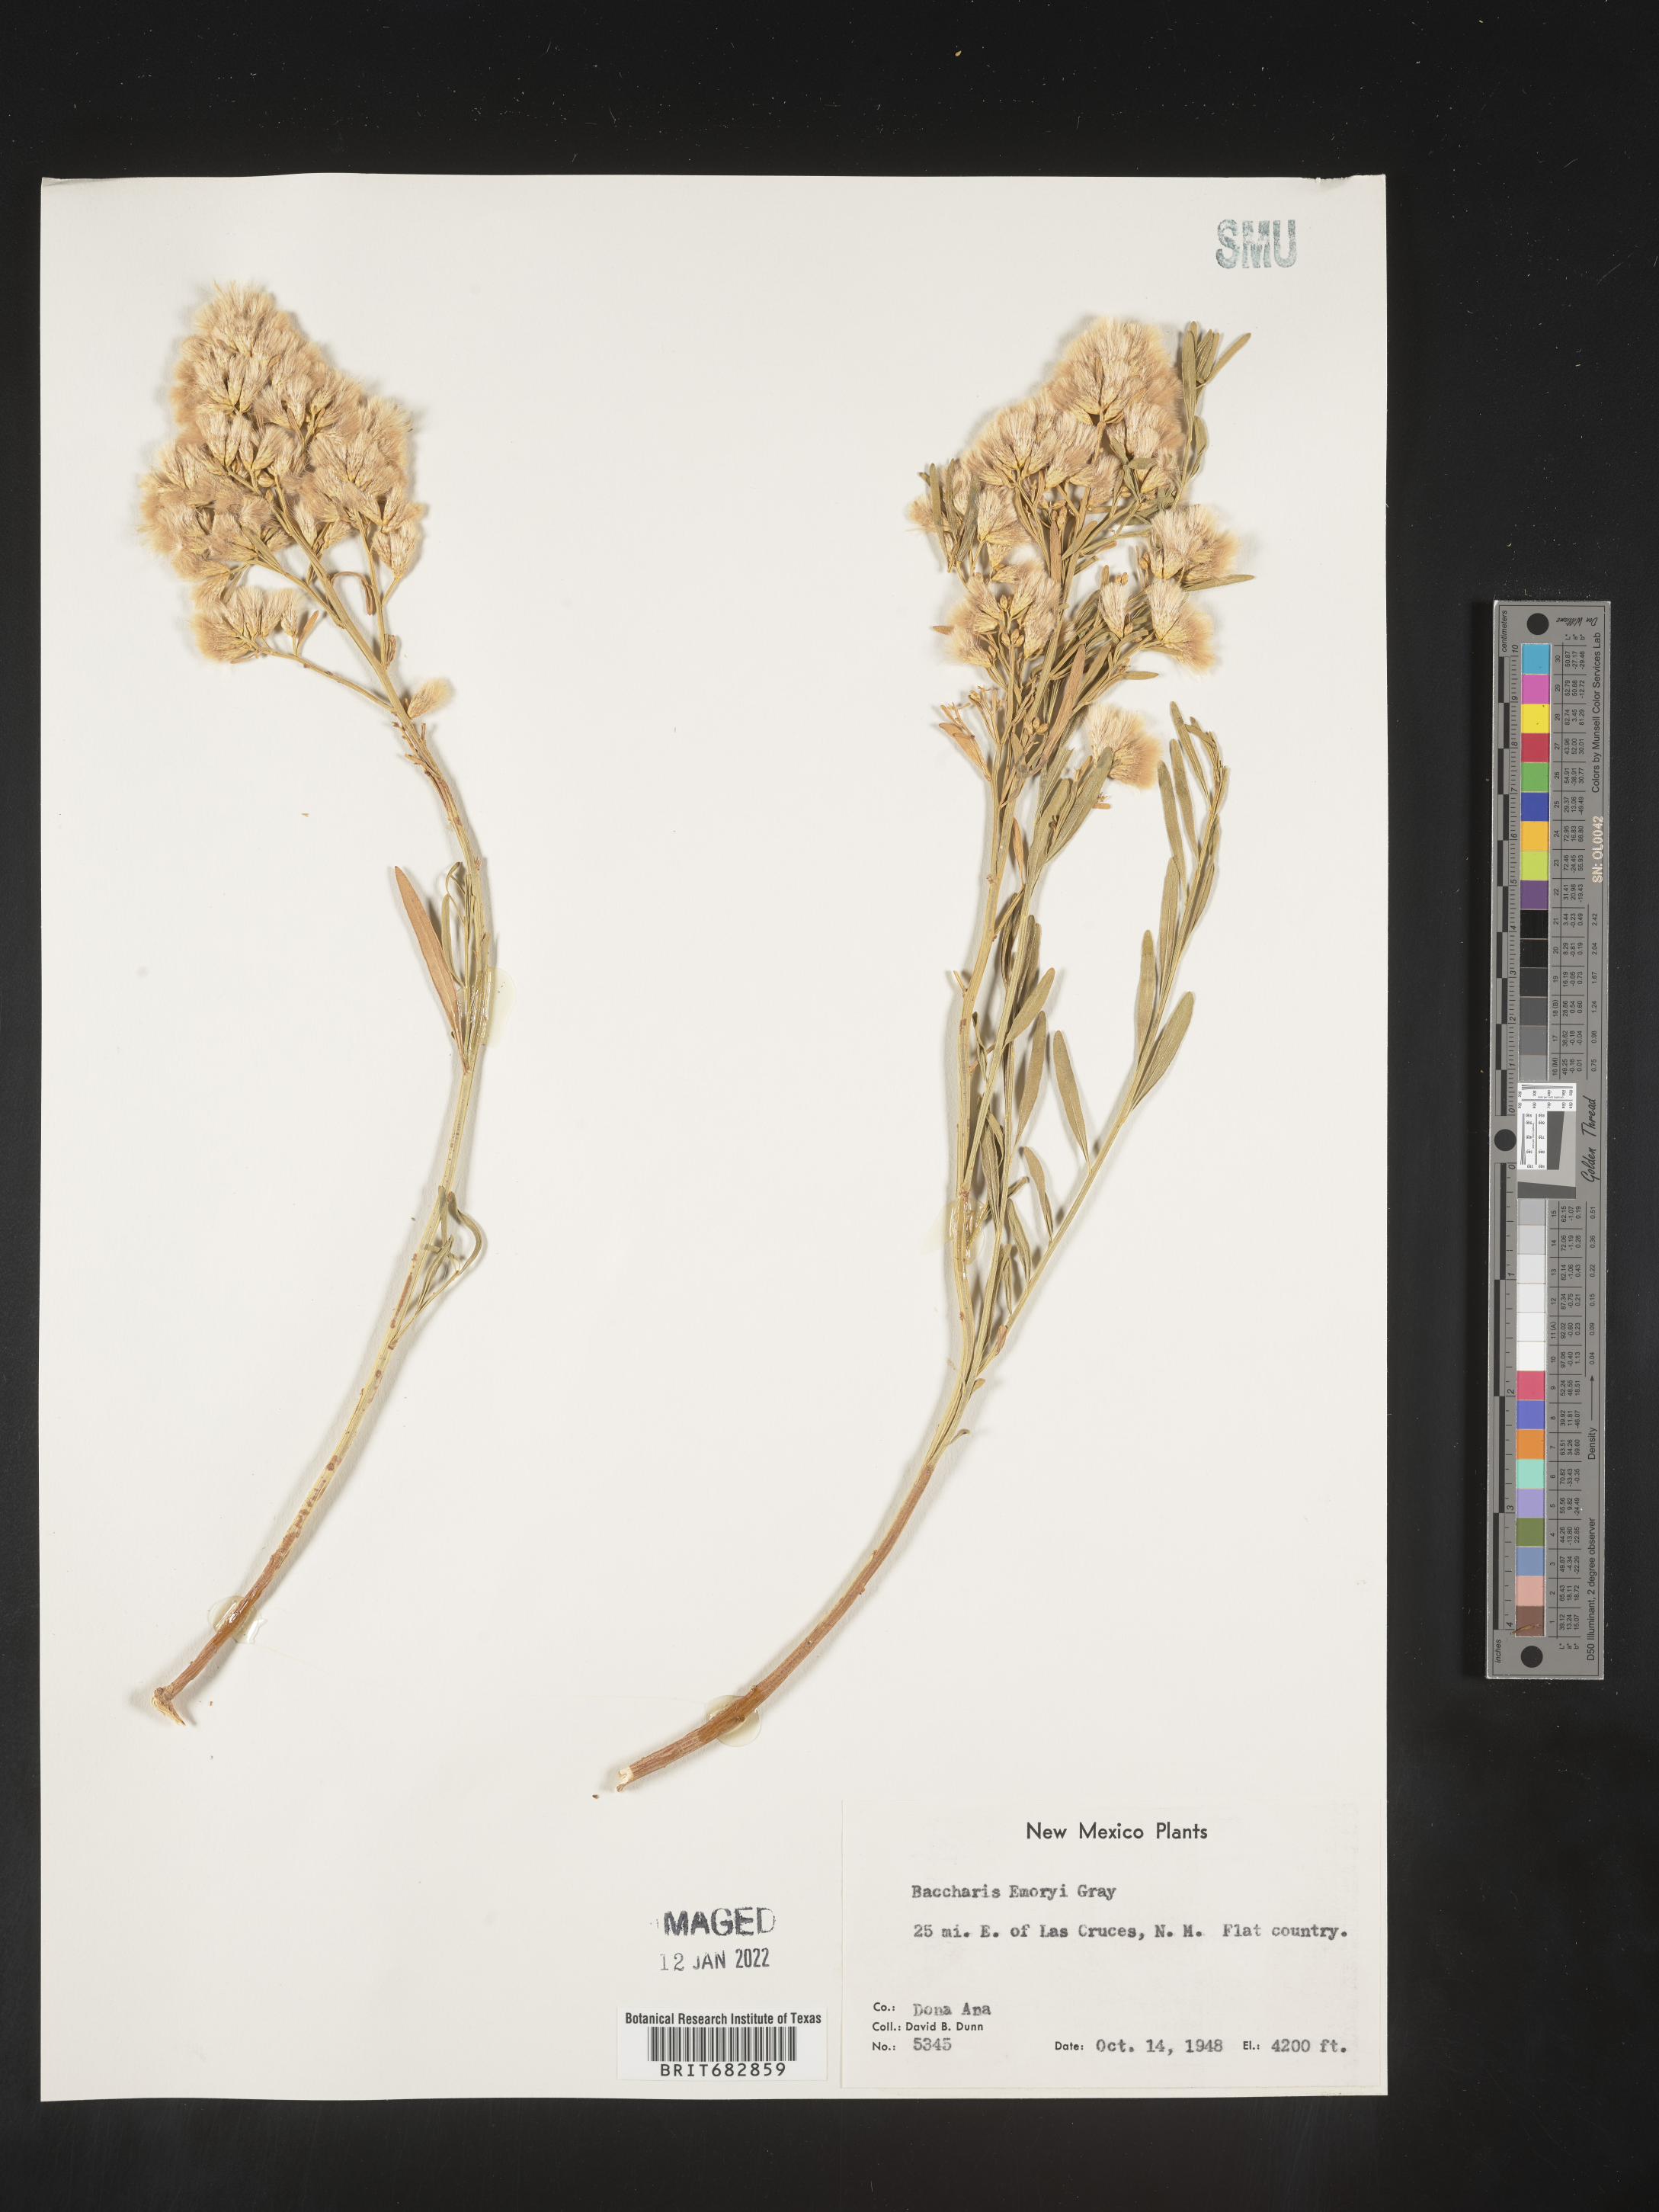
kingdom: Plantae
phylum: Tracheophyta
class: Magnoliopsida
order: Asterales
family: Asteraceae
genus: Baccharis
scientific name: Baccharis salicina
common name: Willow baccharis
